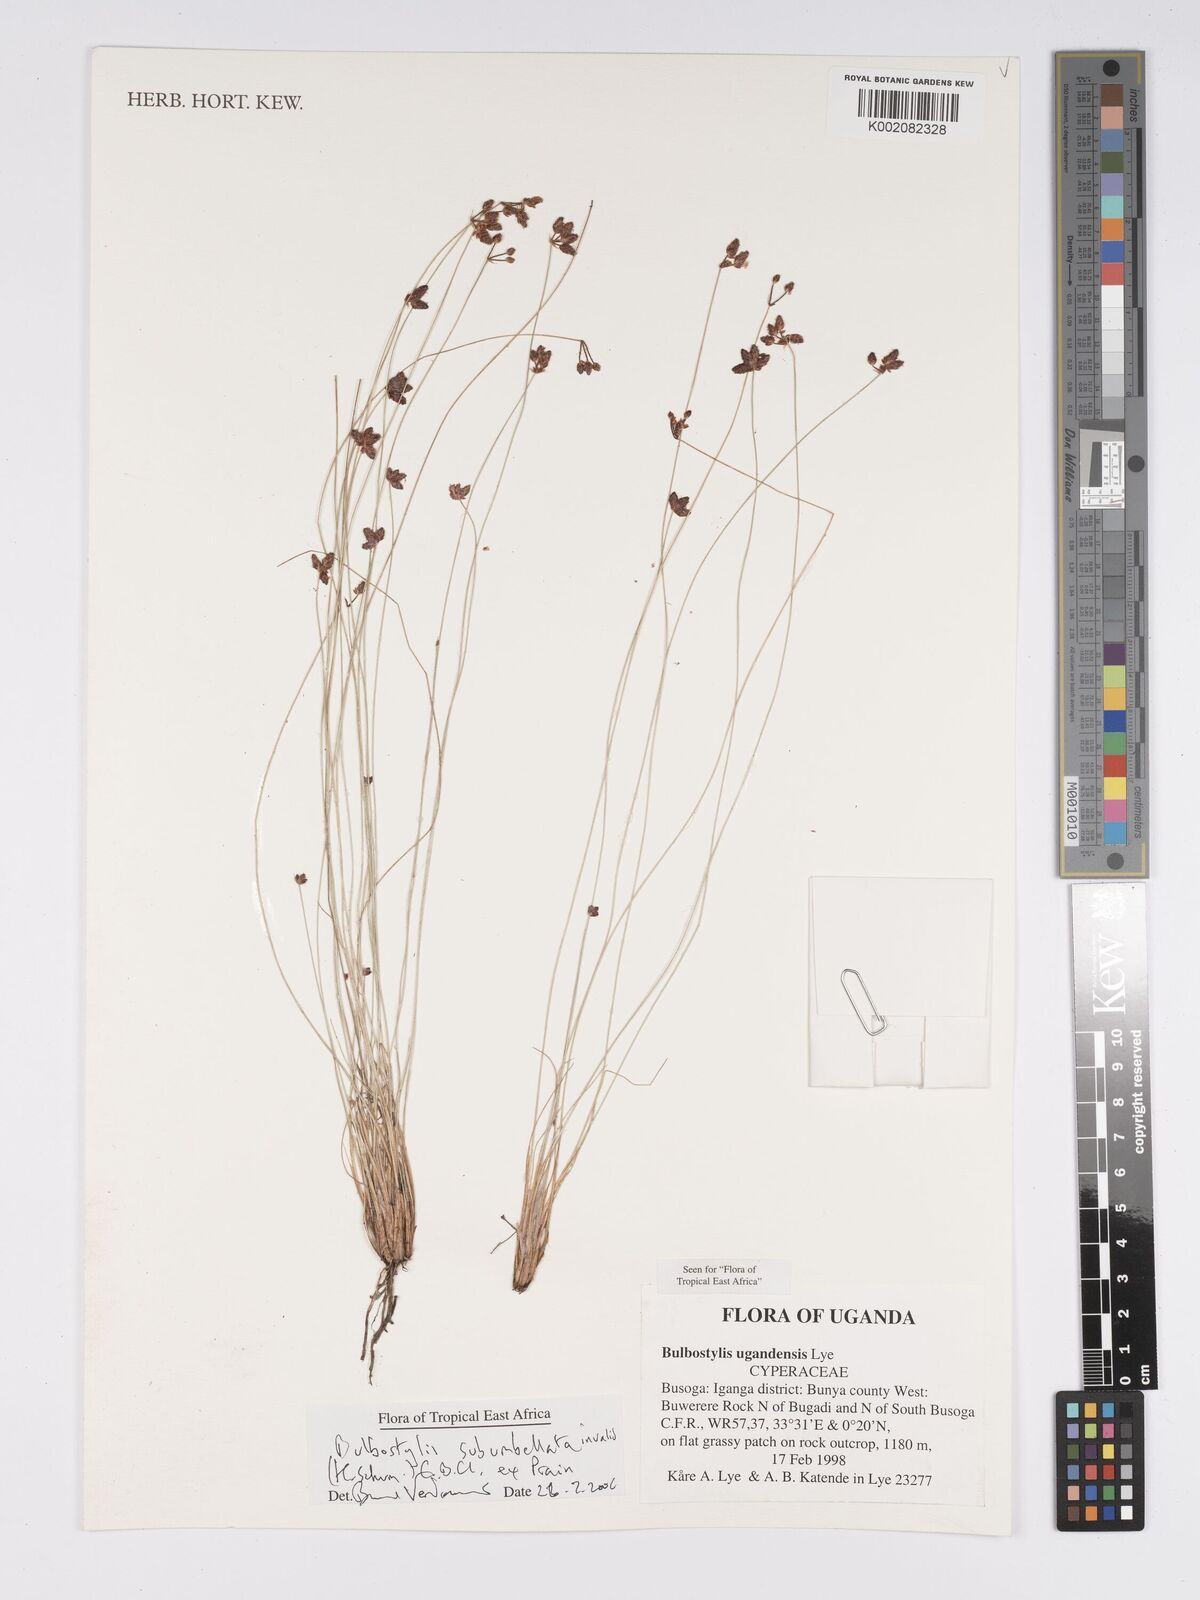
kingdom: Plantae
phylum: Tracheophyta
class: Liliopsida
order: Poales
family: Cyperaceae
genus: Bulbostylis
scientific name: Bulbostylis ugandensis
